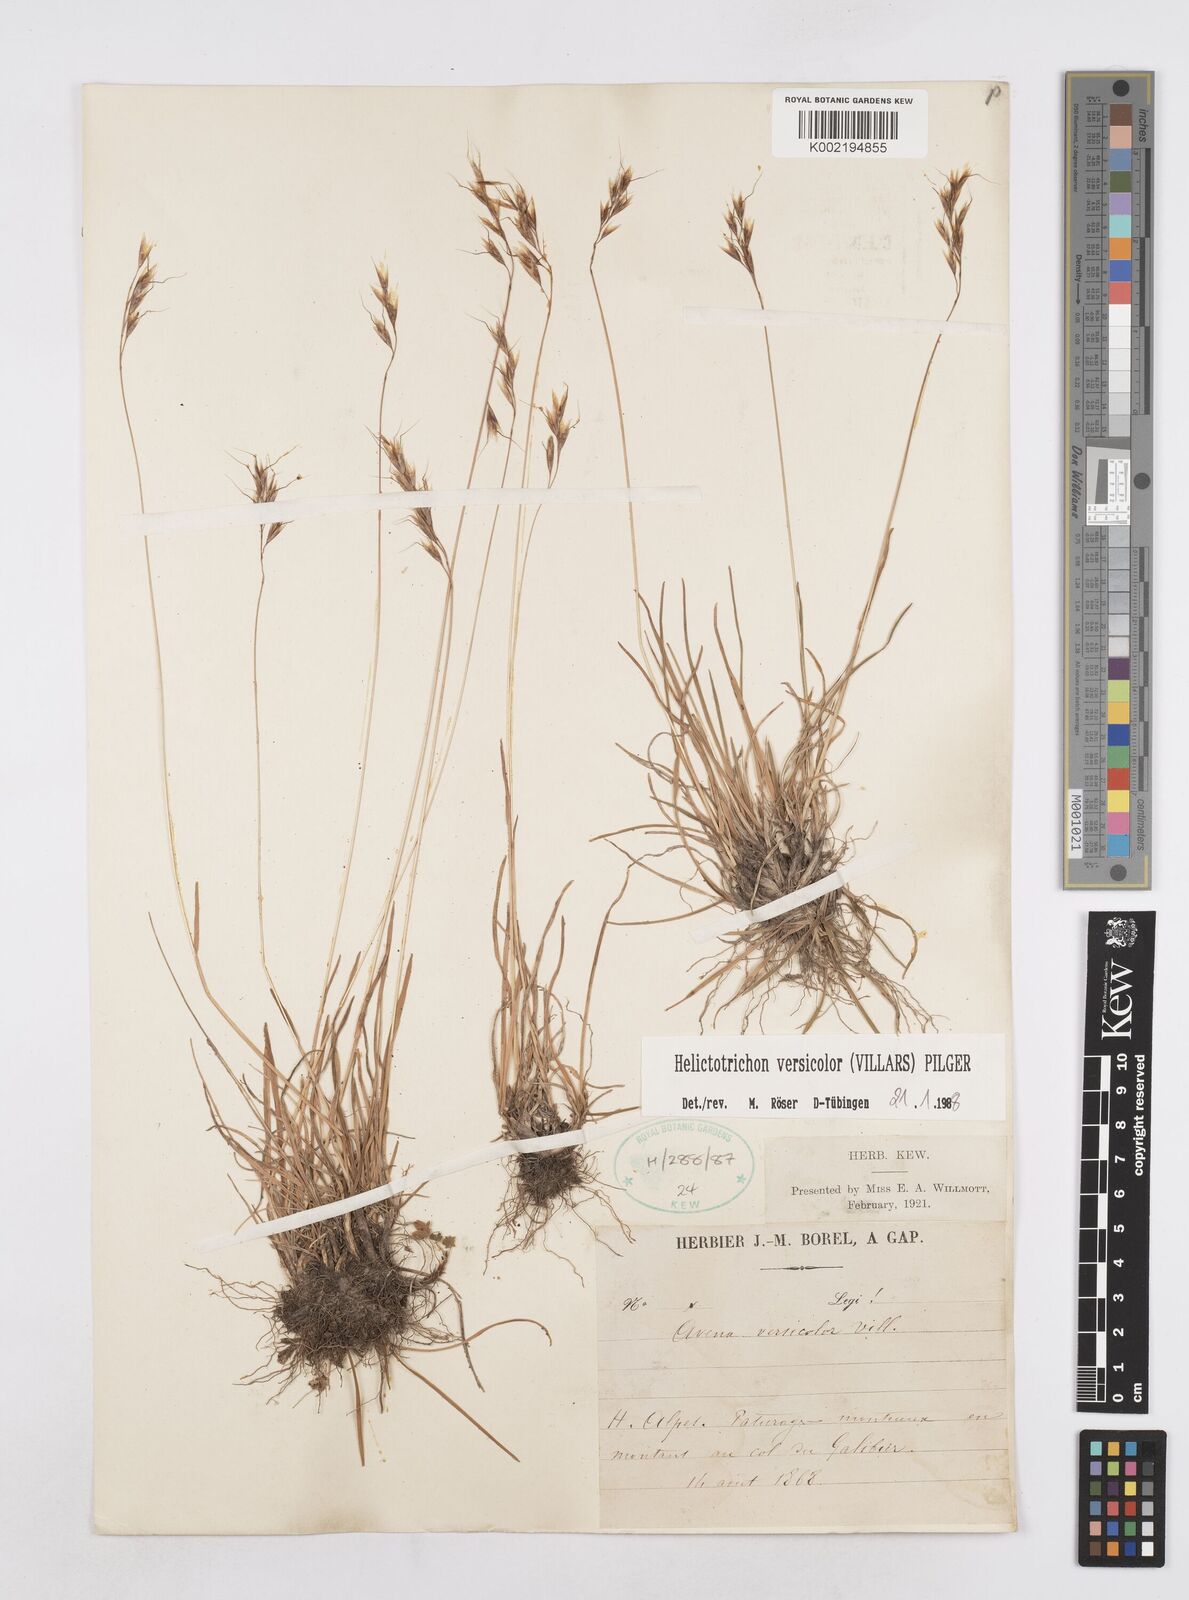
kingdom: Plantae
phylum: Tracheophyta
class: Liliopsida
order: Poales
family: Poaceae
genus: Helictochloa
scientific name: Helictochloa versicolor
